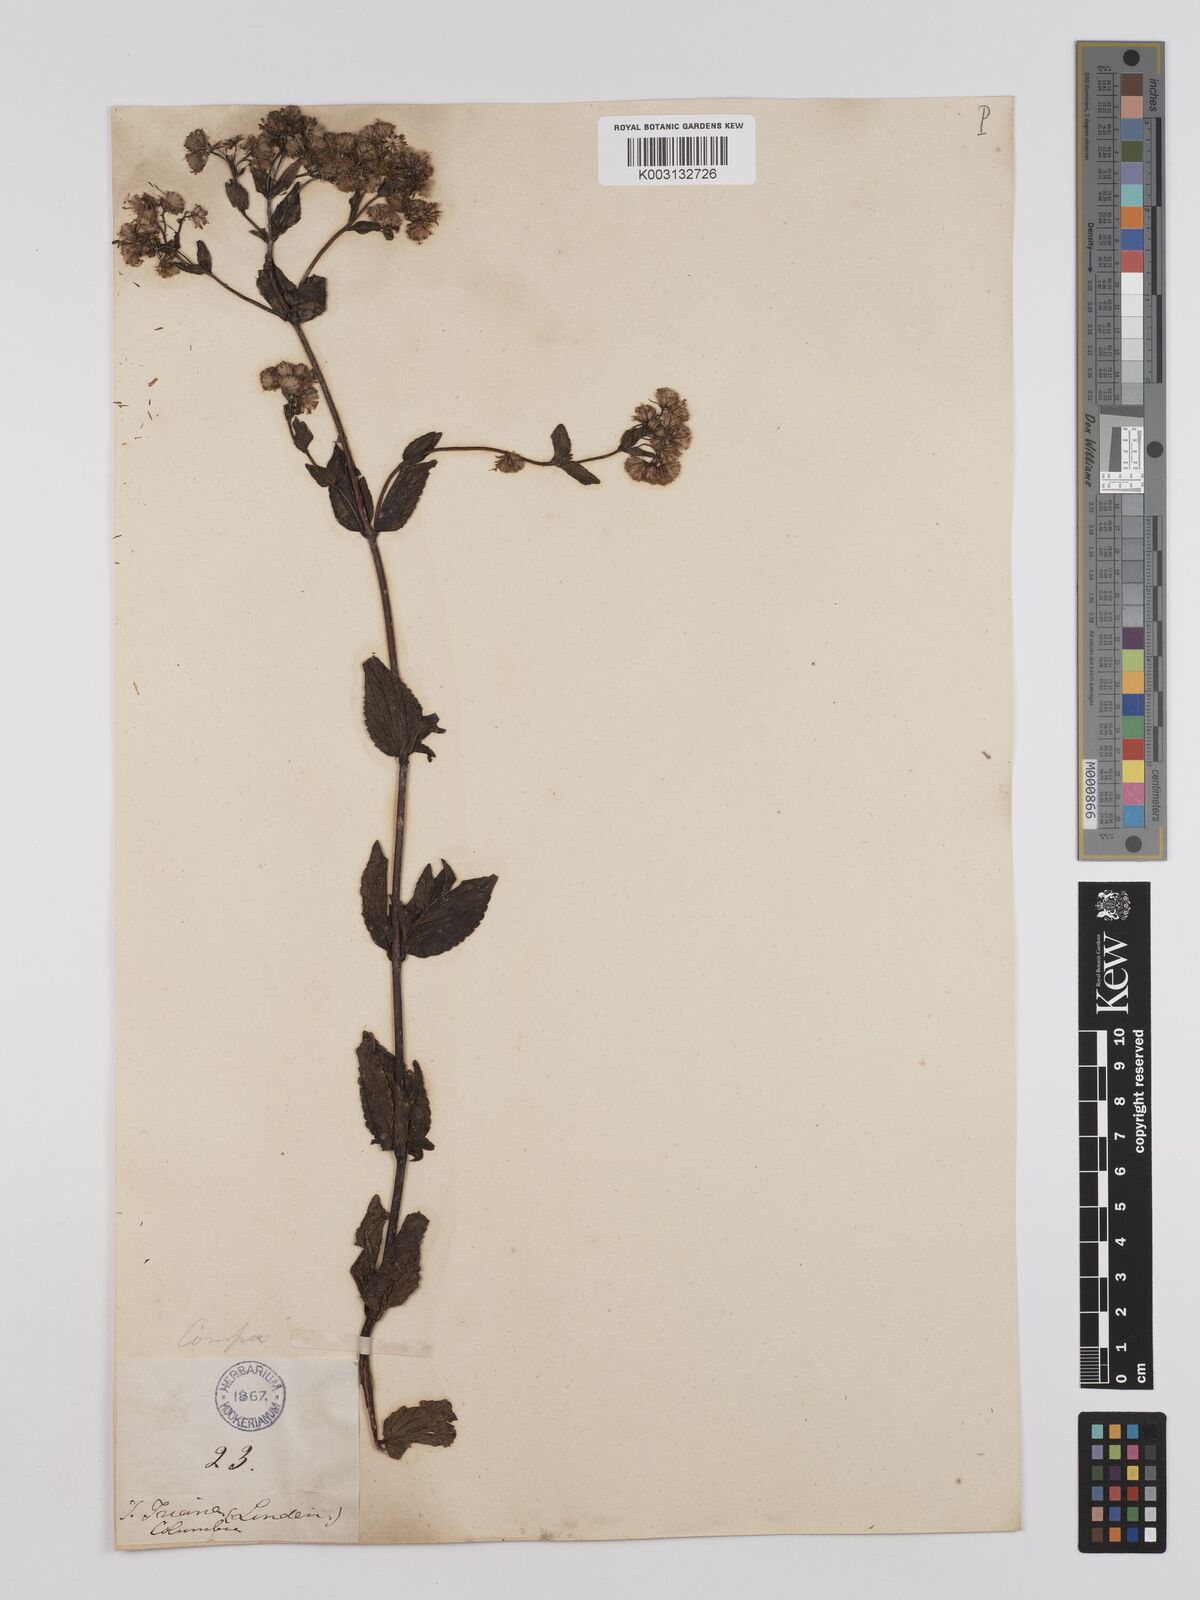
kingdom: Plantae
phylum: Tracheophyta
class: Magnoliopsida
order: Asterales
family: Asteraceae
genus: Ageratina
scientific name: Ageratina gracilis
